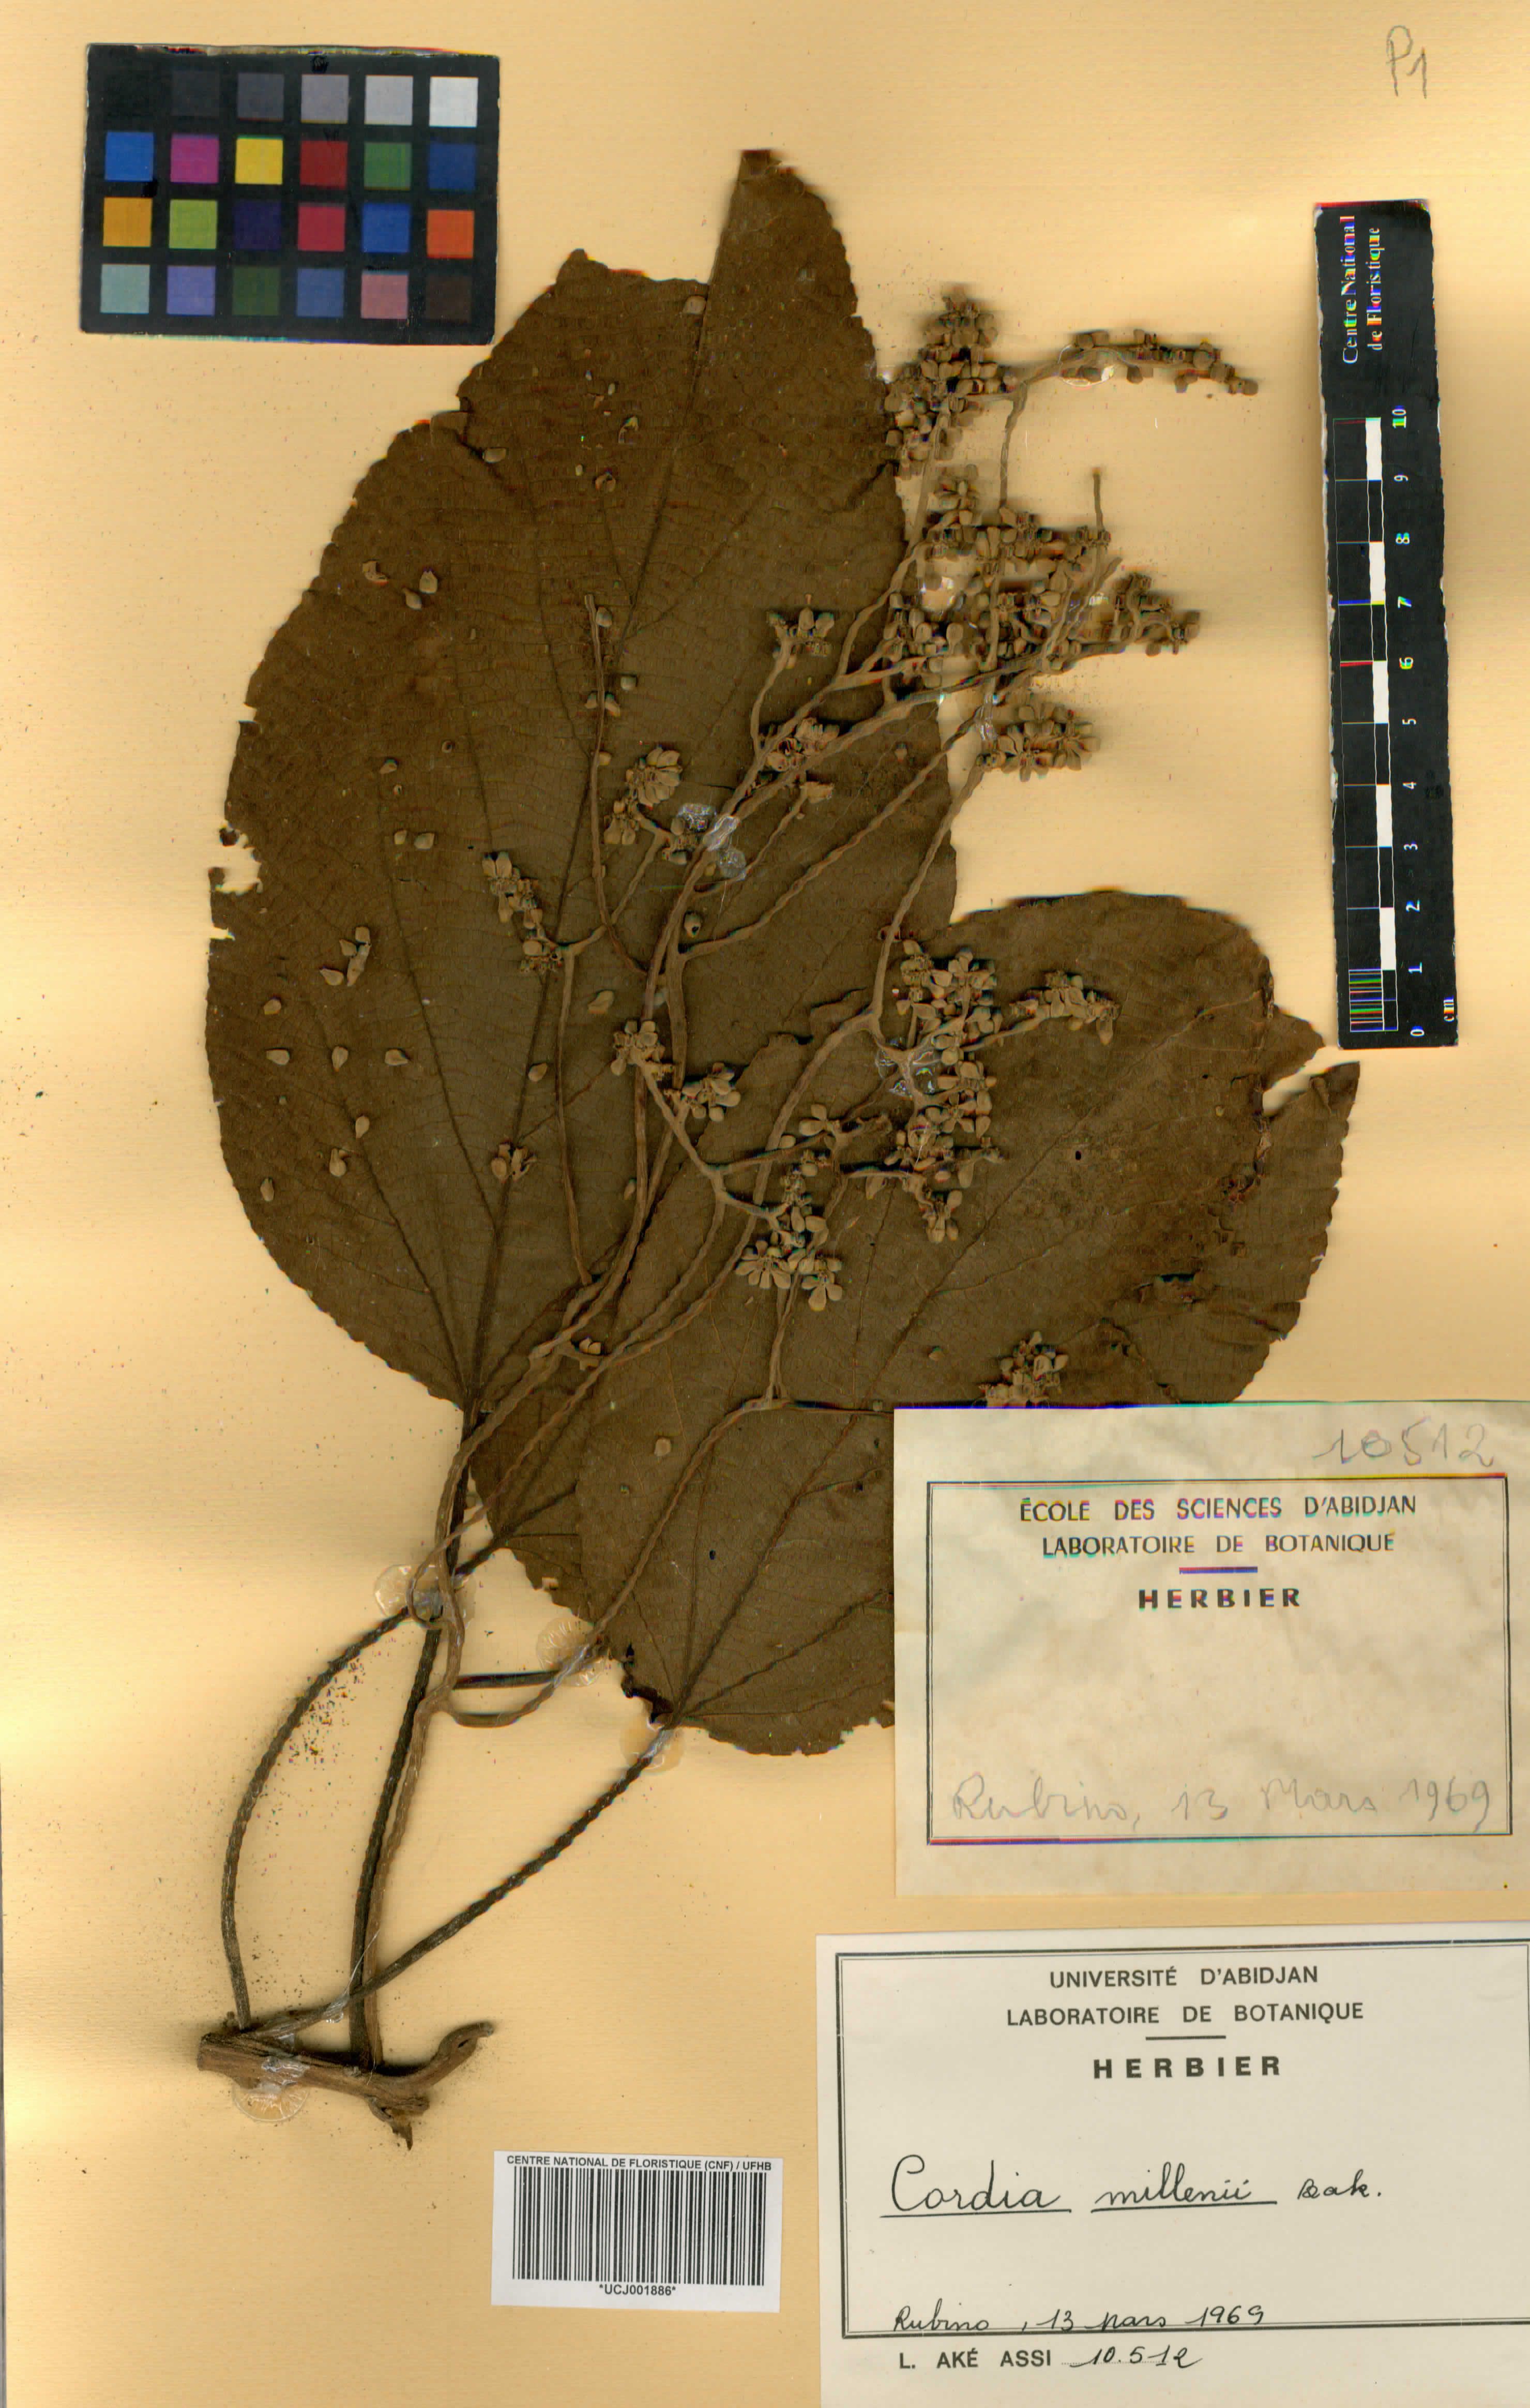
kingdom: Plantae
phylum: Tracheophyta
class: Magnoliopsida
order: Boraginales
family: Cordiaceae
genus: Cordia
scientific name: Cordia millenii
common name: Drum tree
